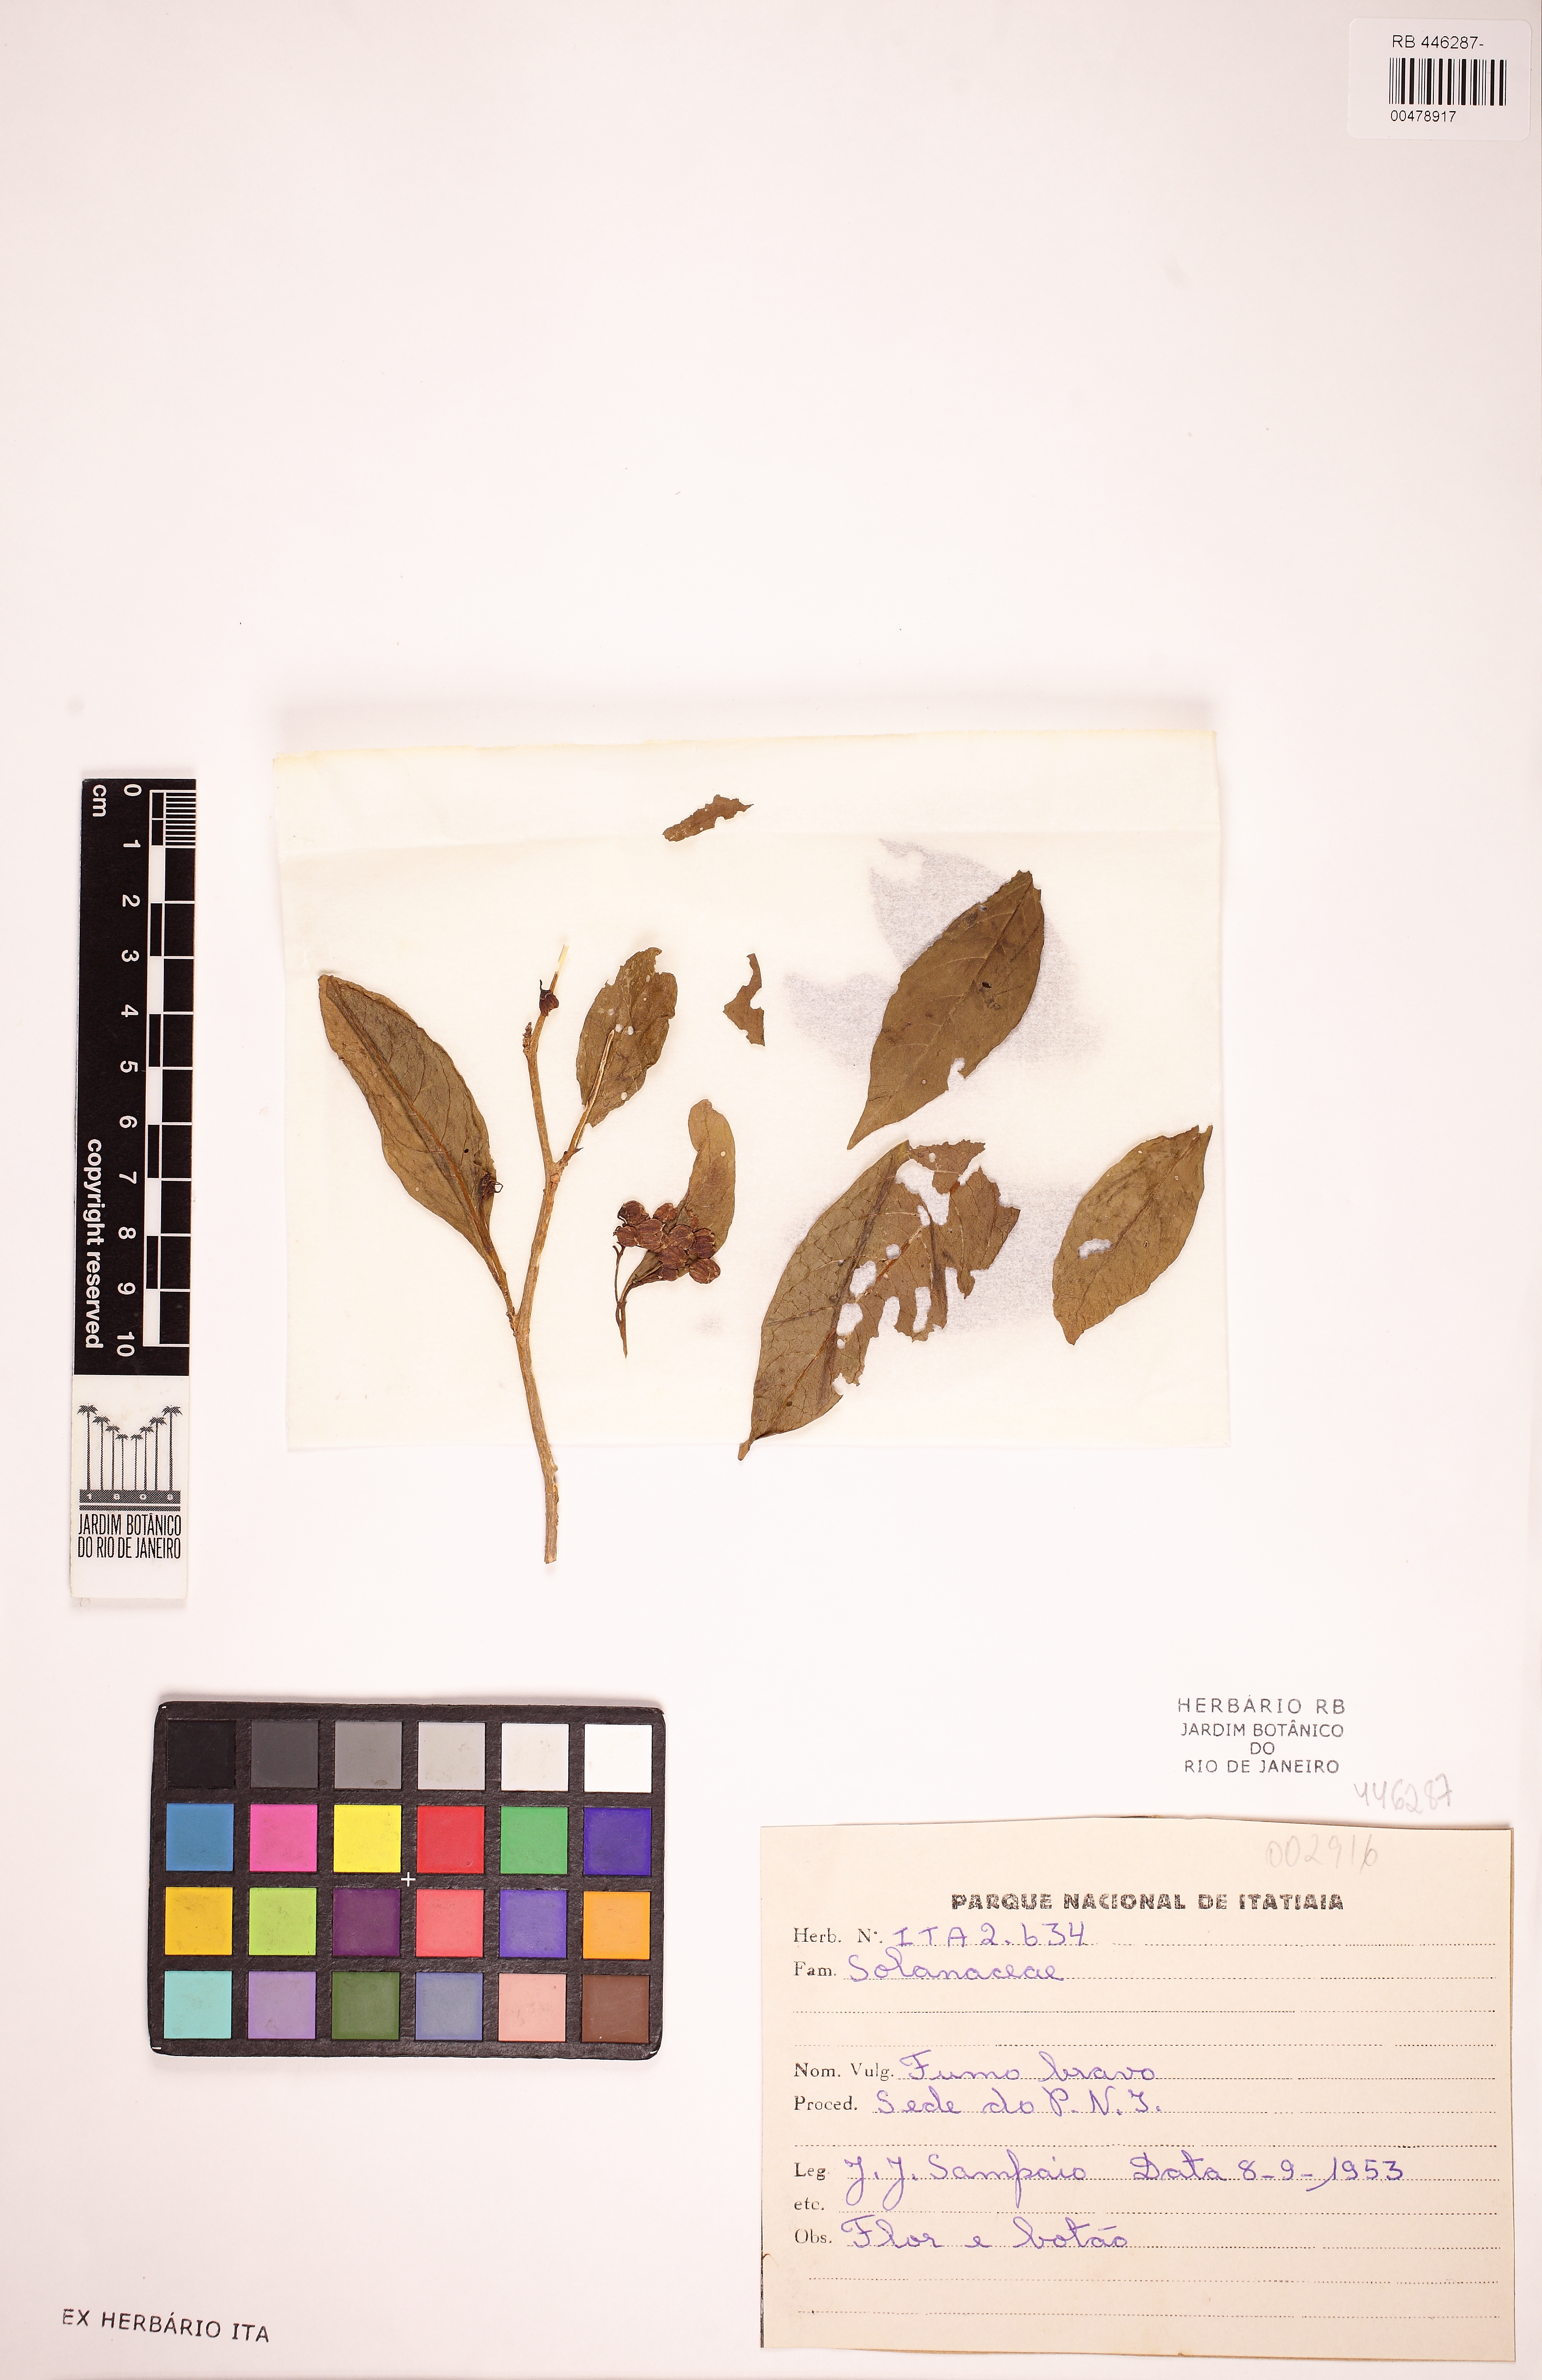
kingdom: Plantae
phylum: Tracheophyta
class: Magnoliopsida
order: Solanales
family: Solanaceae
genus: Solanum
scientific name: Solanum pseudoquina
